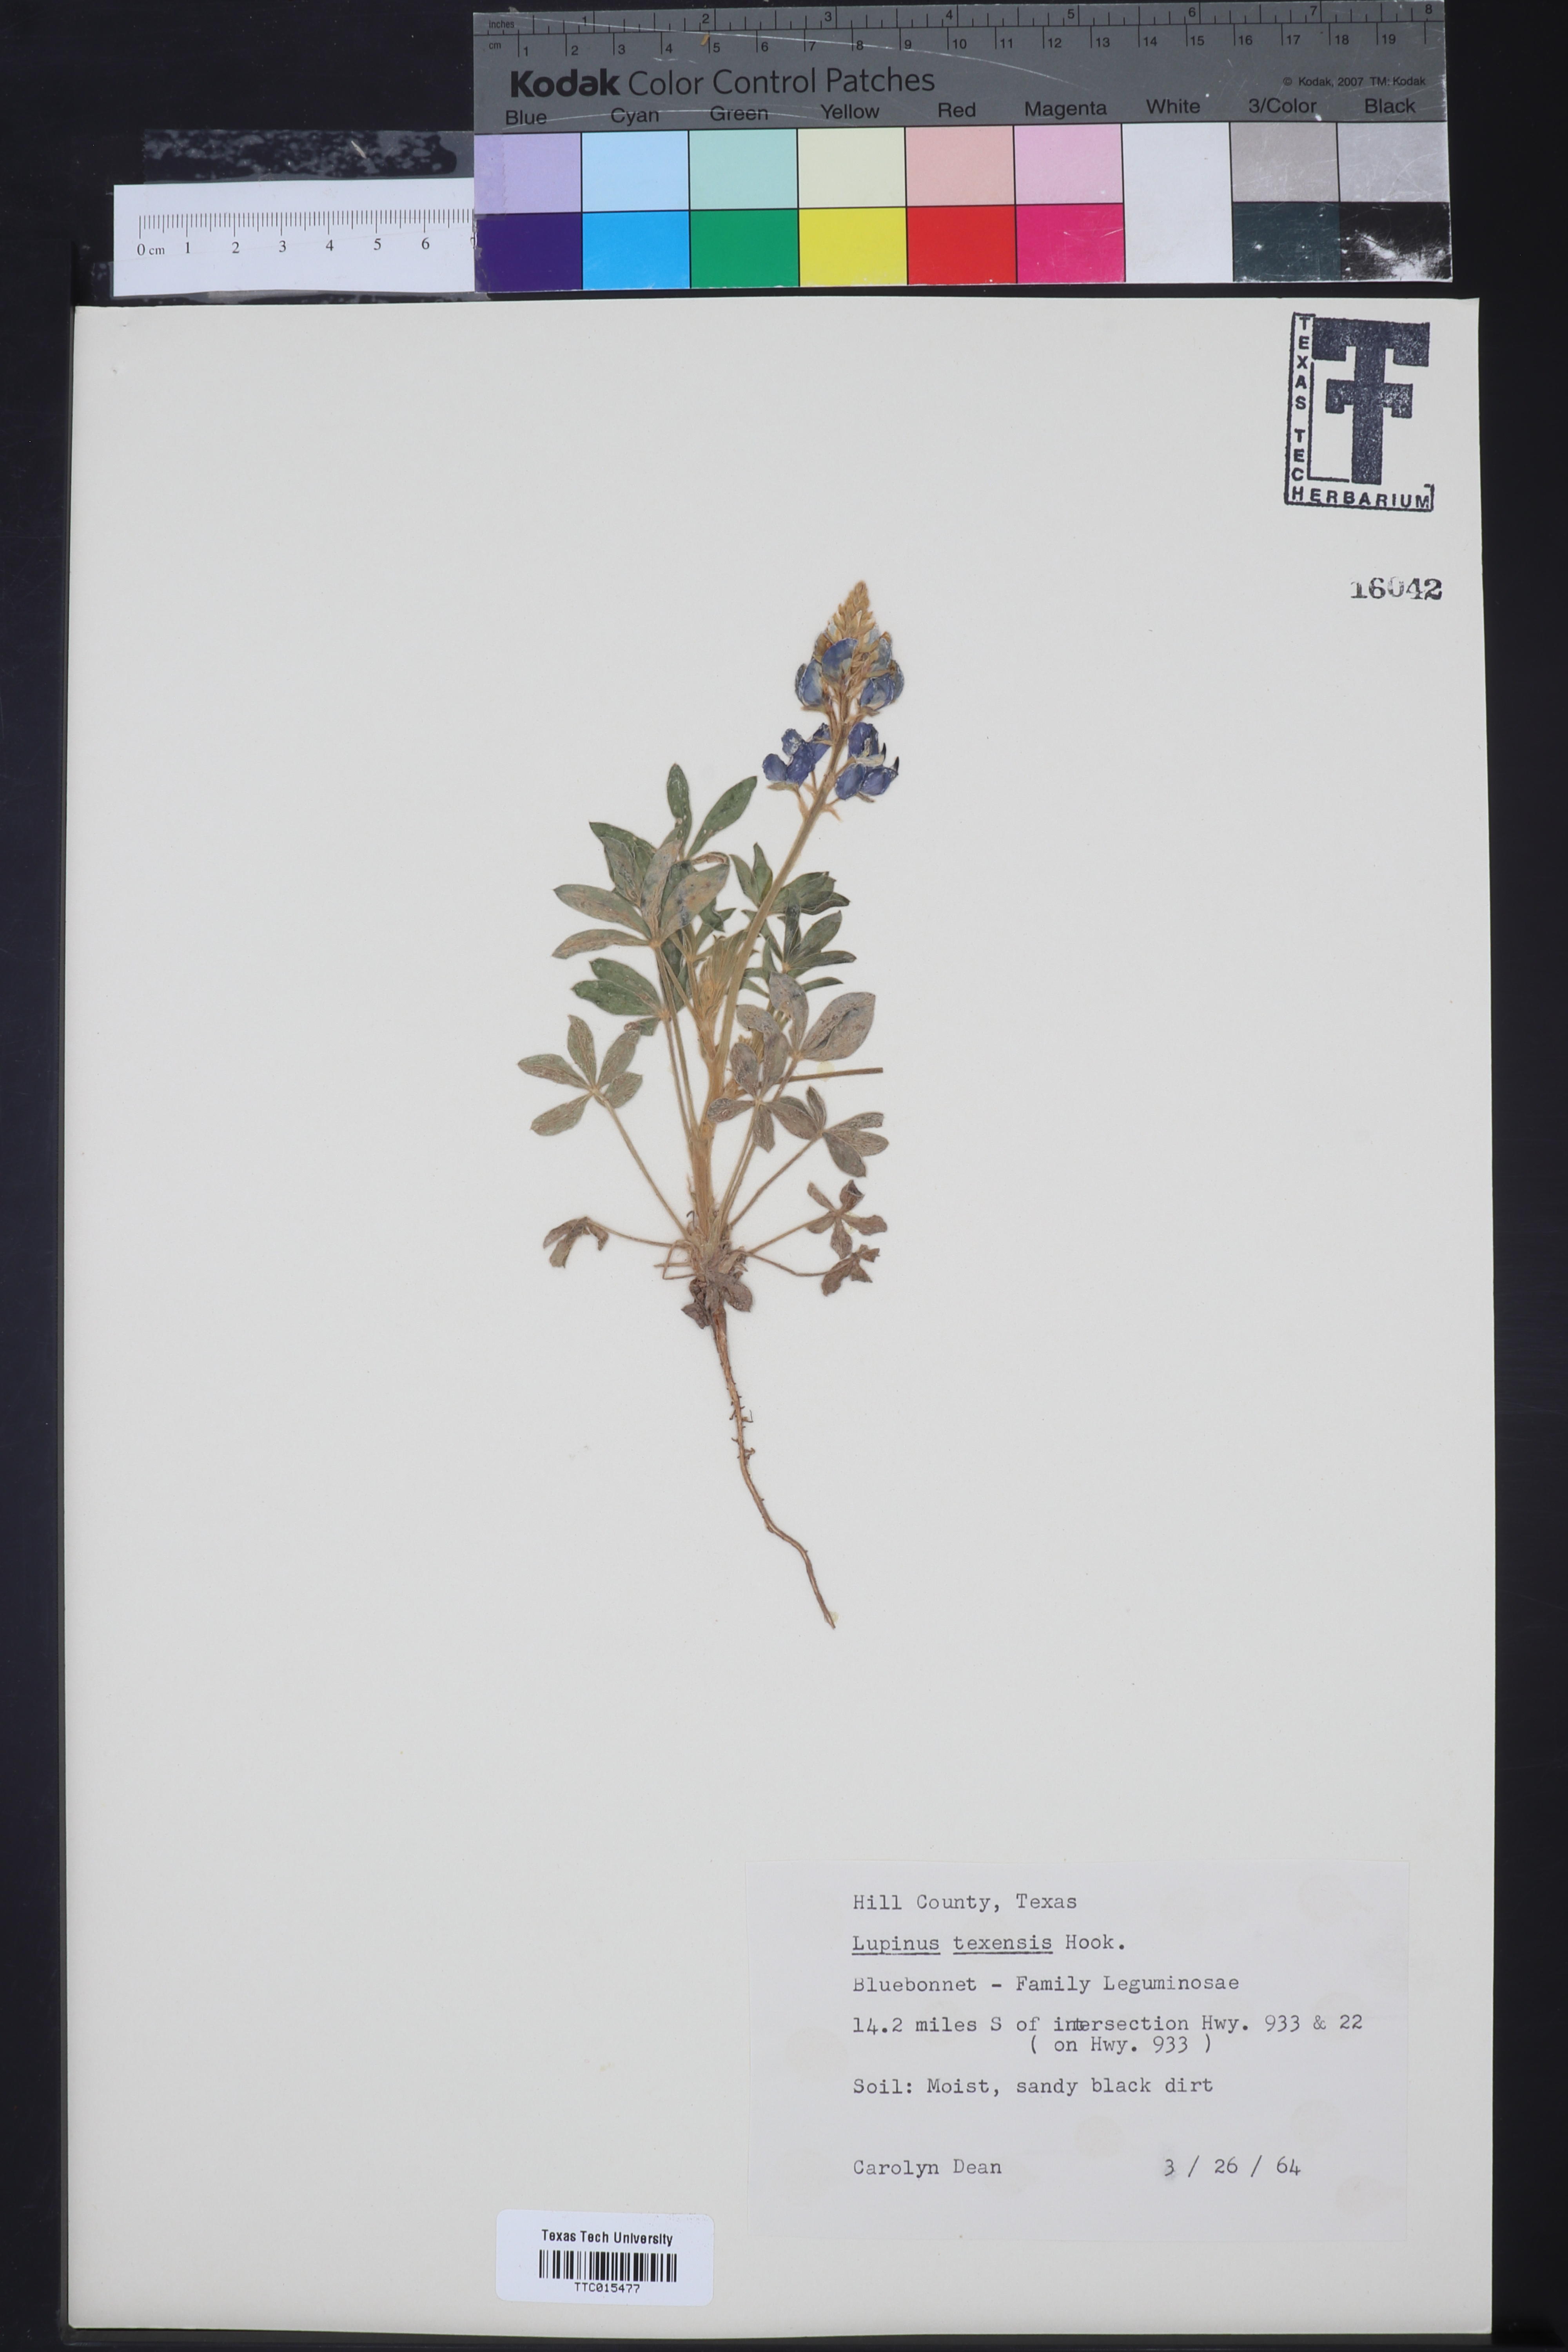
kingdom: Plantae
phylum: Tracheophyta
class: Magnoliopsida
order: Fabales
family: Fabaceae
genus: Lupinus
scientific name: Lupinus texensis
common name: Texas bluebonnet
